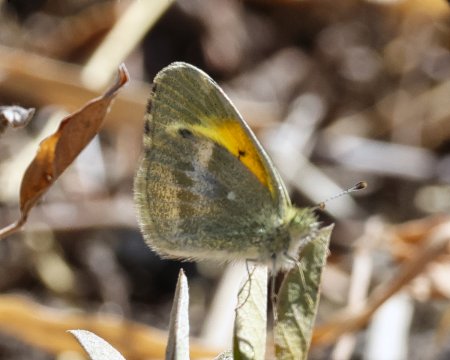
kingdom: Animalia
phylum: Arthropoda
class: Insecta
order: Lepidoptera
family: Pieridae
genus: Nathalis
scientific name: Nathalis iole
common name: Dainty Sulphur
